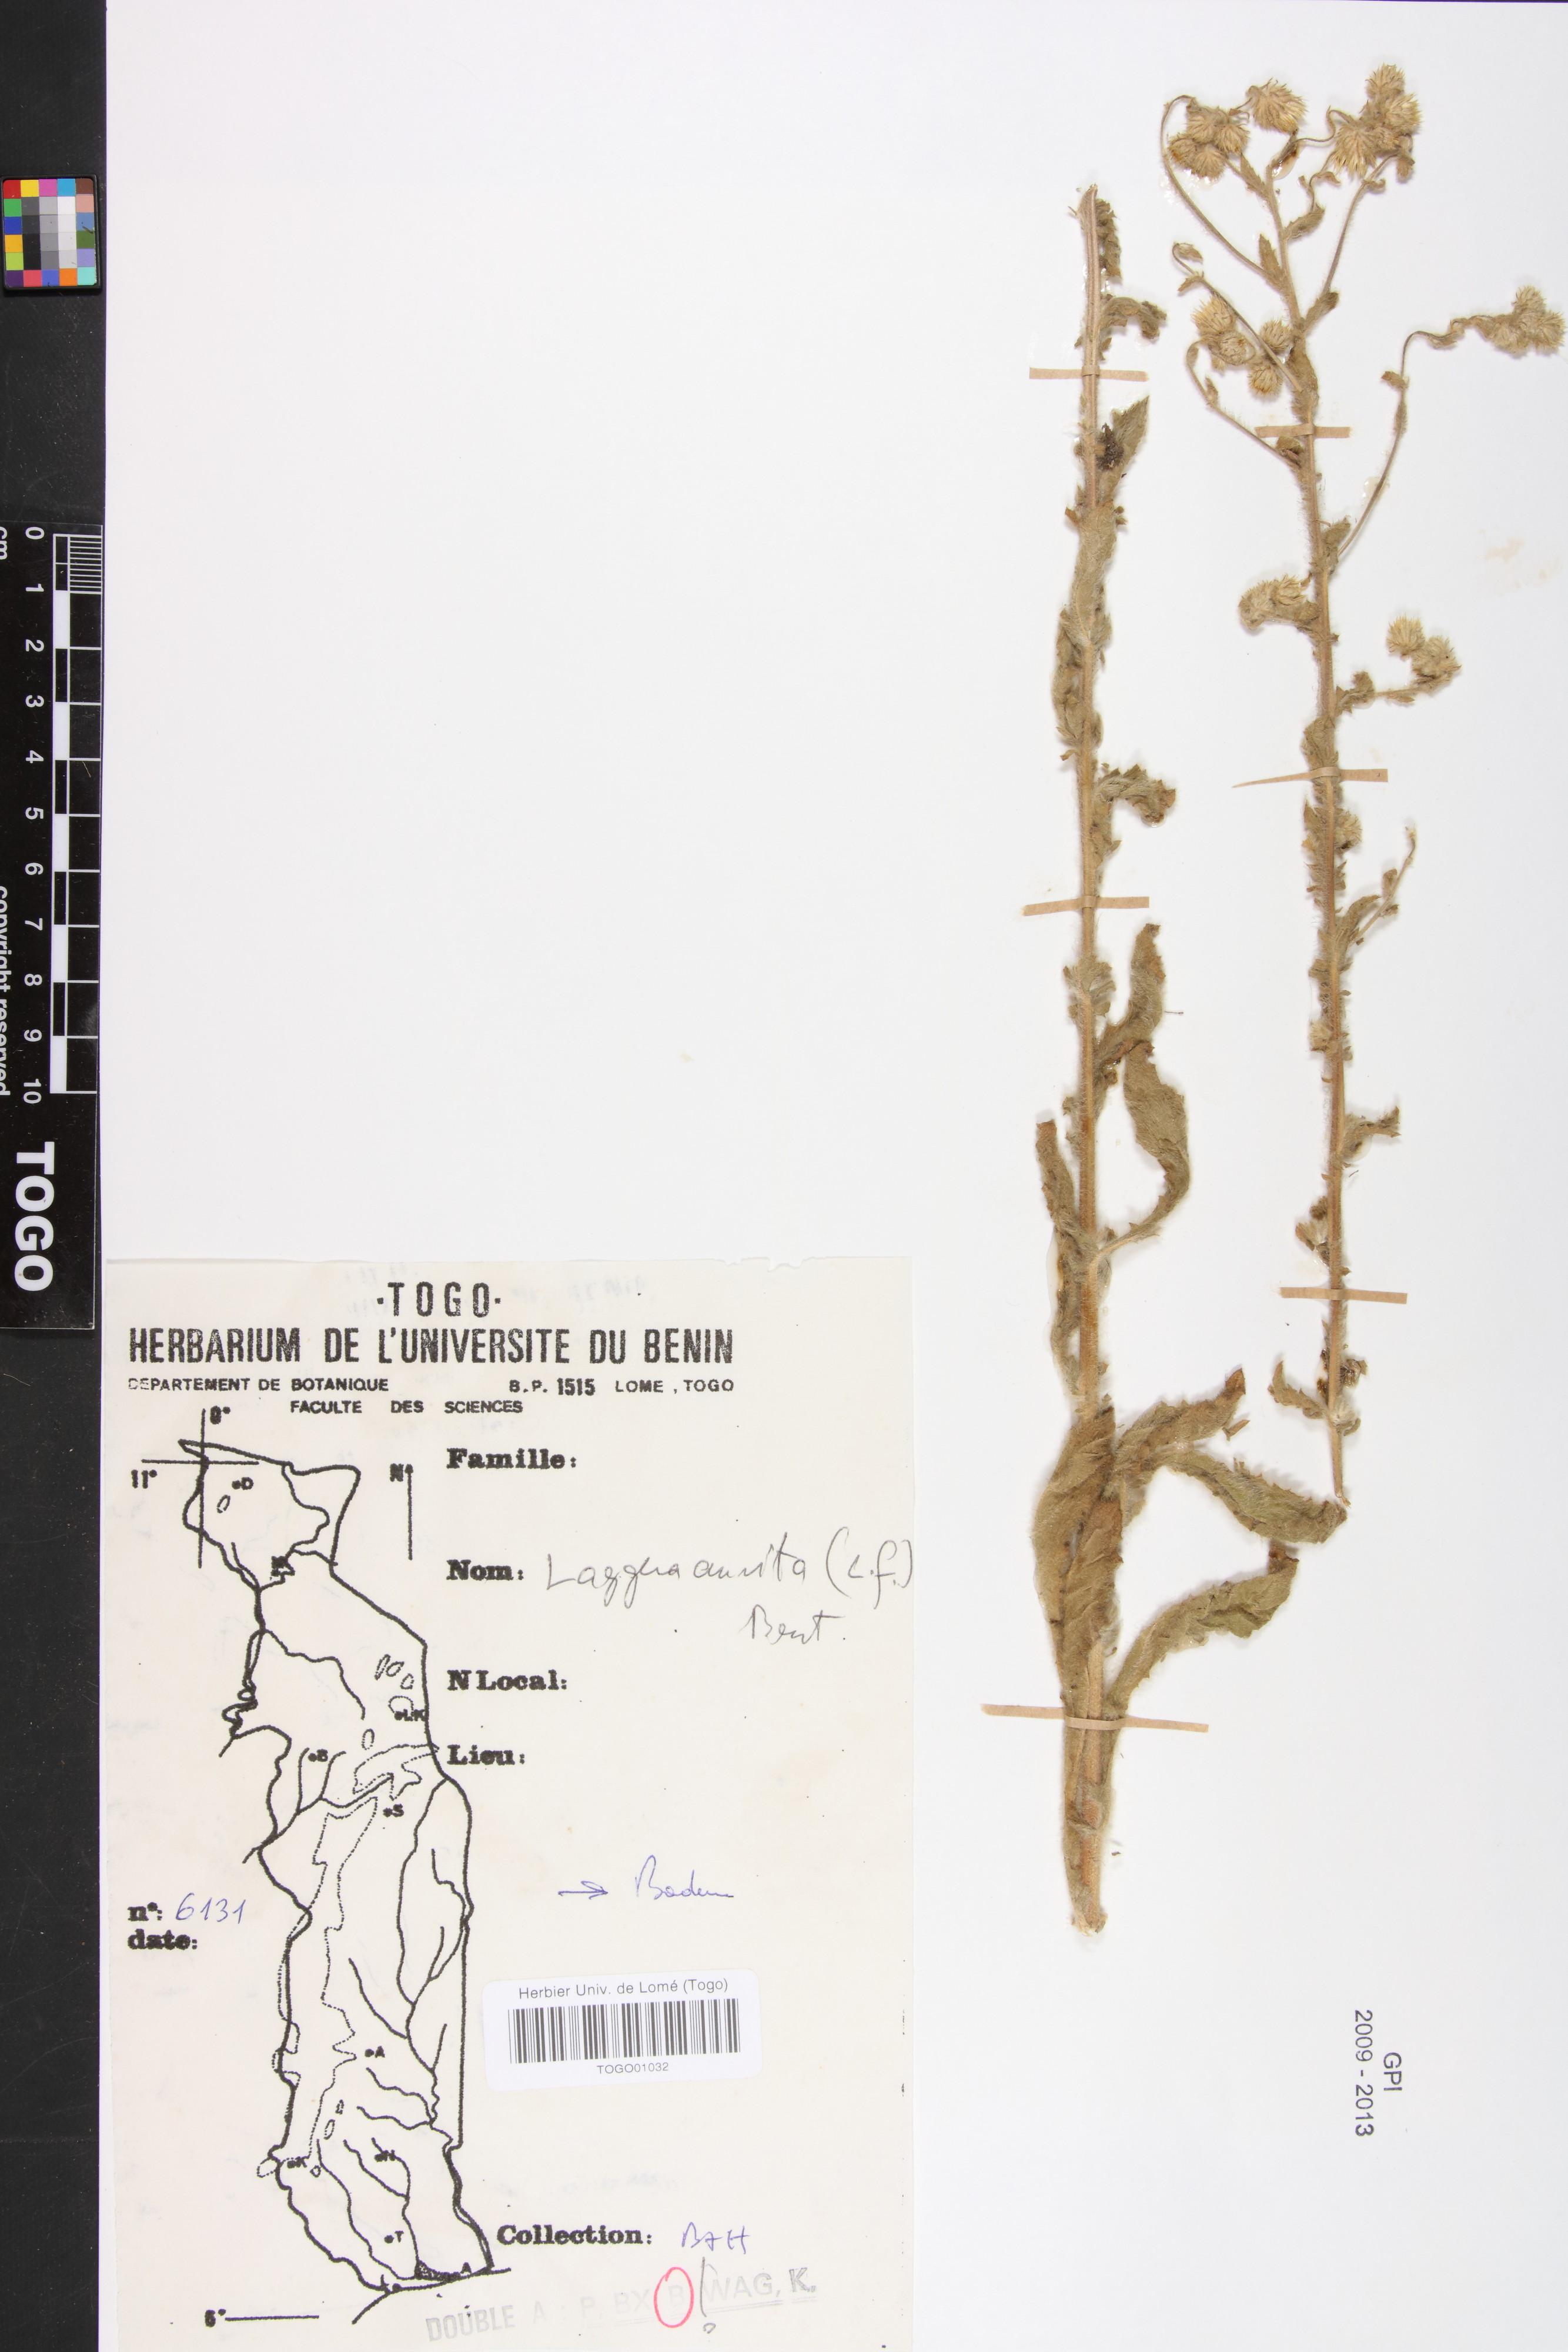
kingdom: Plantae
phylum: Tracheophyta
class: Magnoliopsida
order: Asterales
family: Asteraceae
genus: Pseudoconyza
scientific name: Pseudoconyza viscosa
